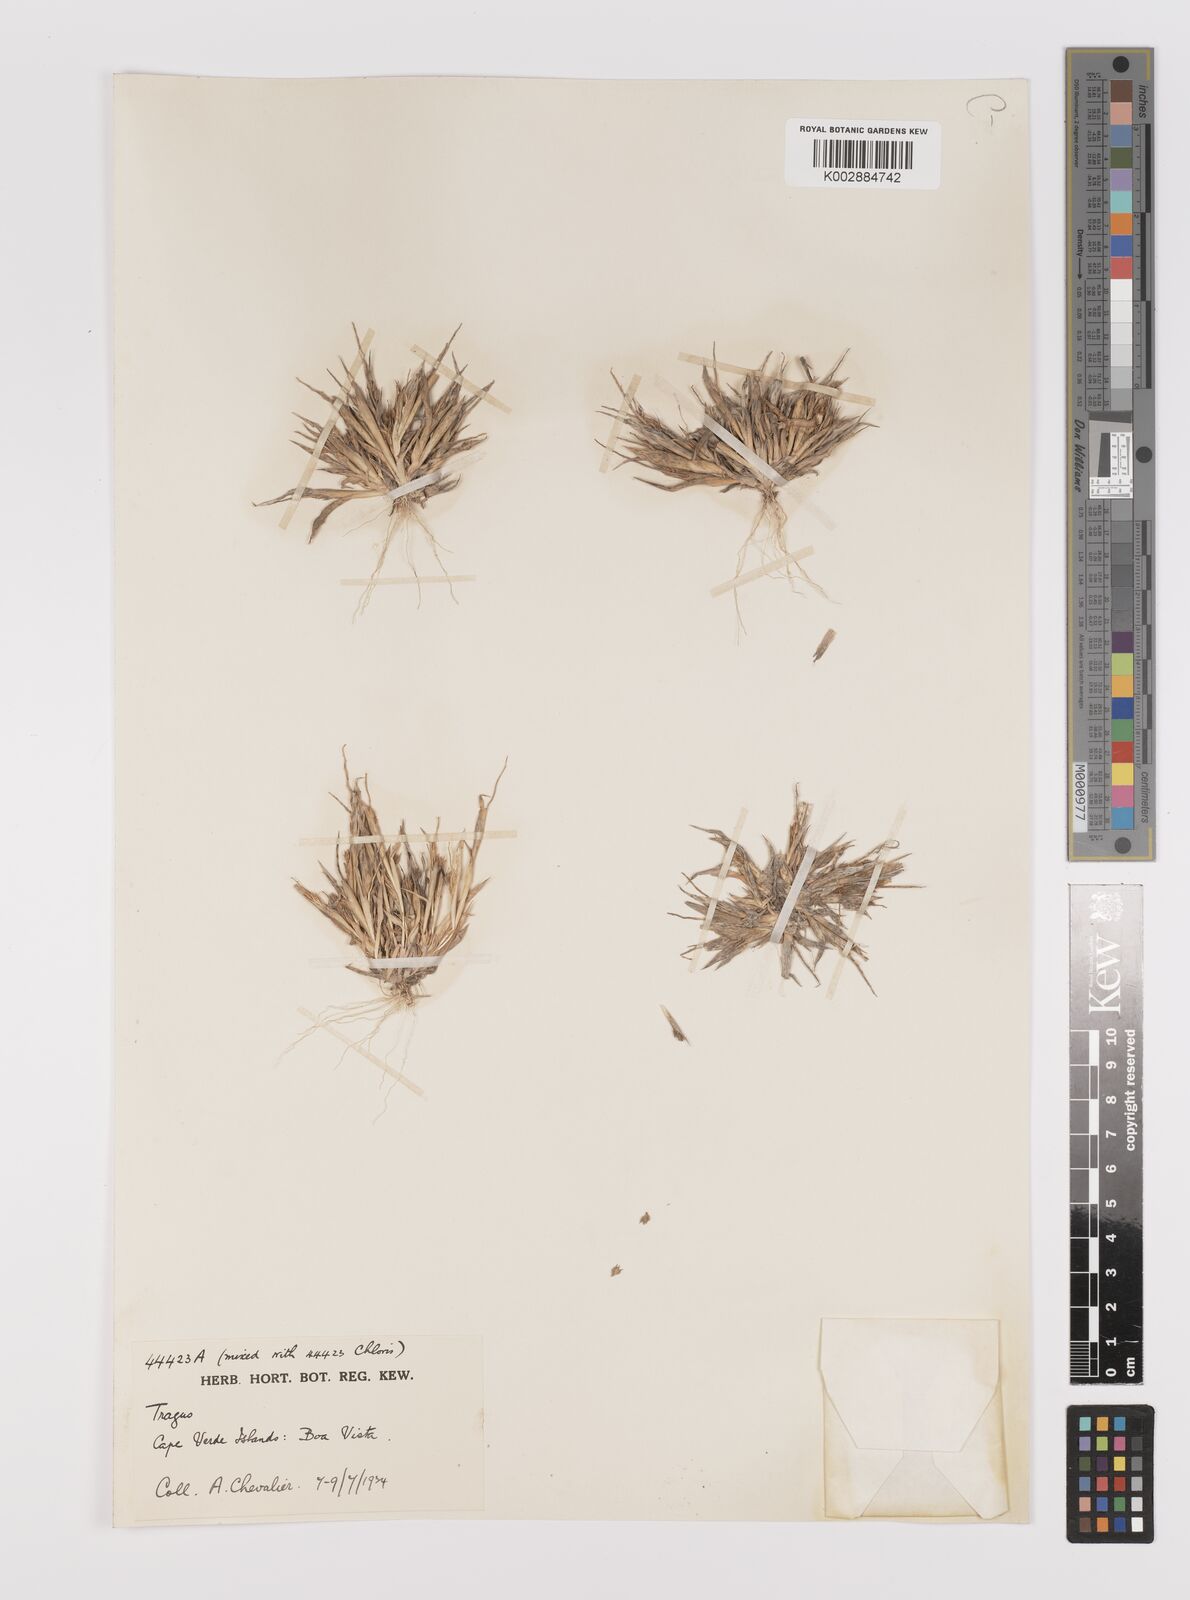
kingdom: Plantae
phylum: Tracheophyta
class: Liliopsida
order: Poales
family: Poaceae
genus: Tragus
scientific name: Tragus racemosus
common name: European bur-grass
